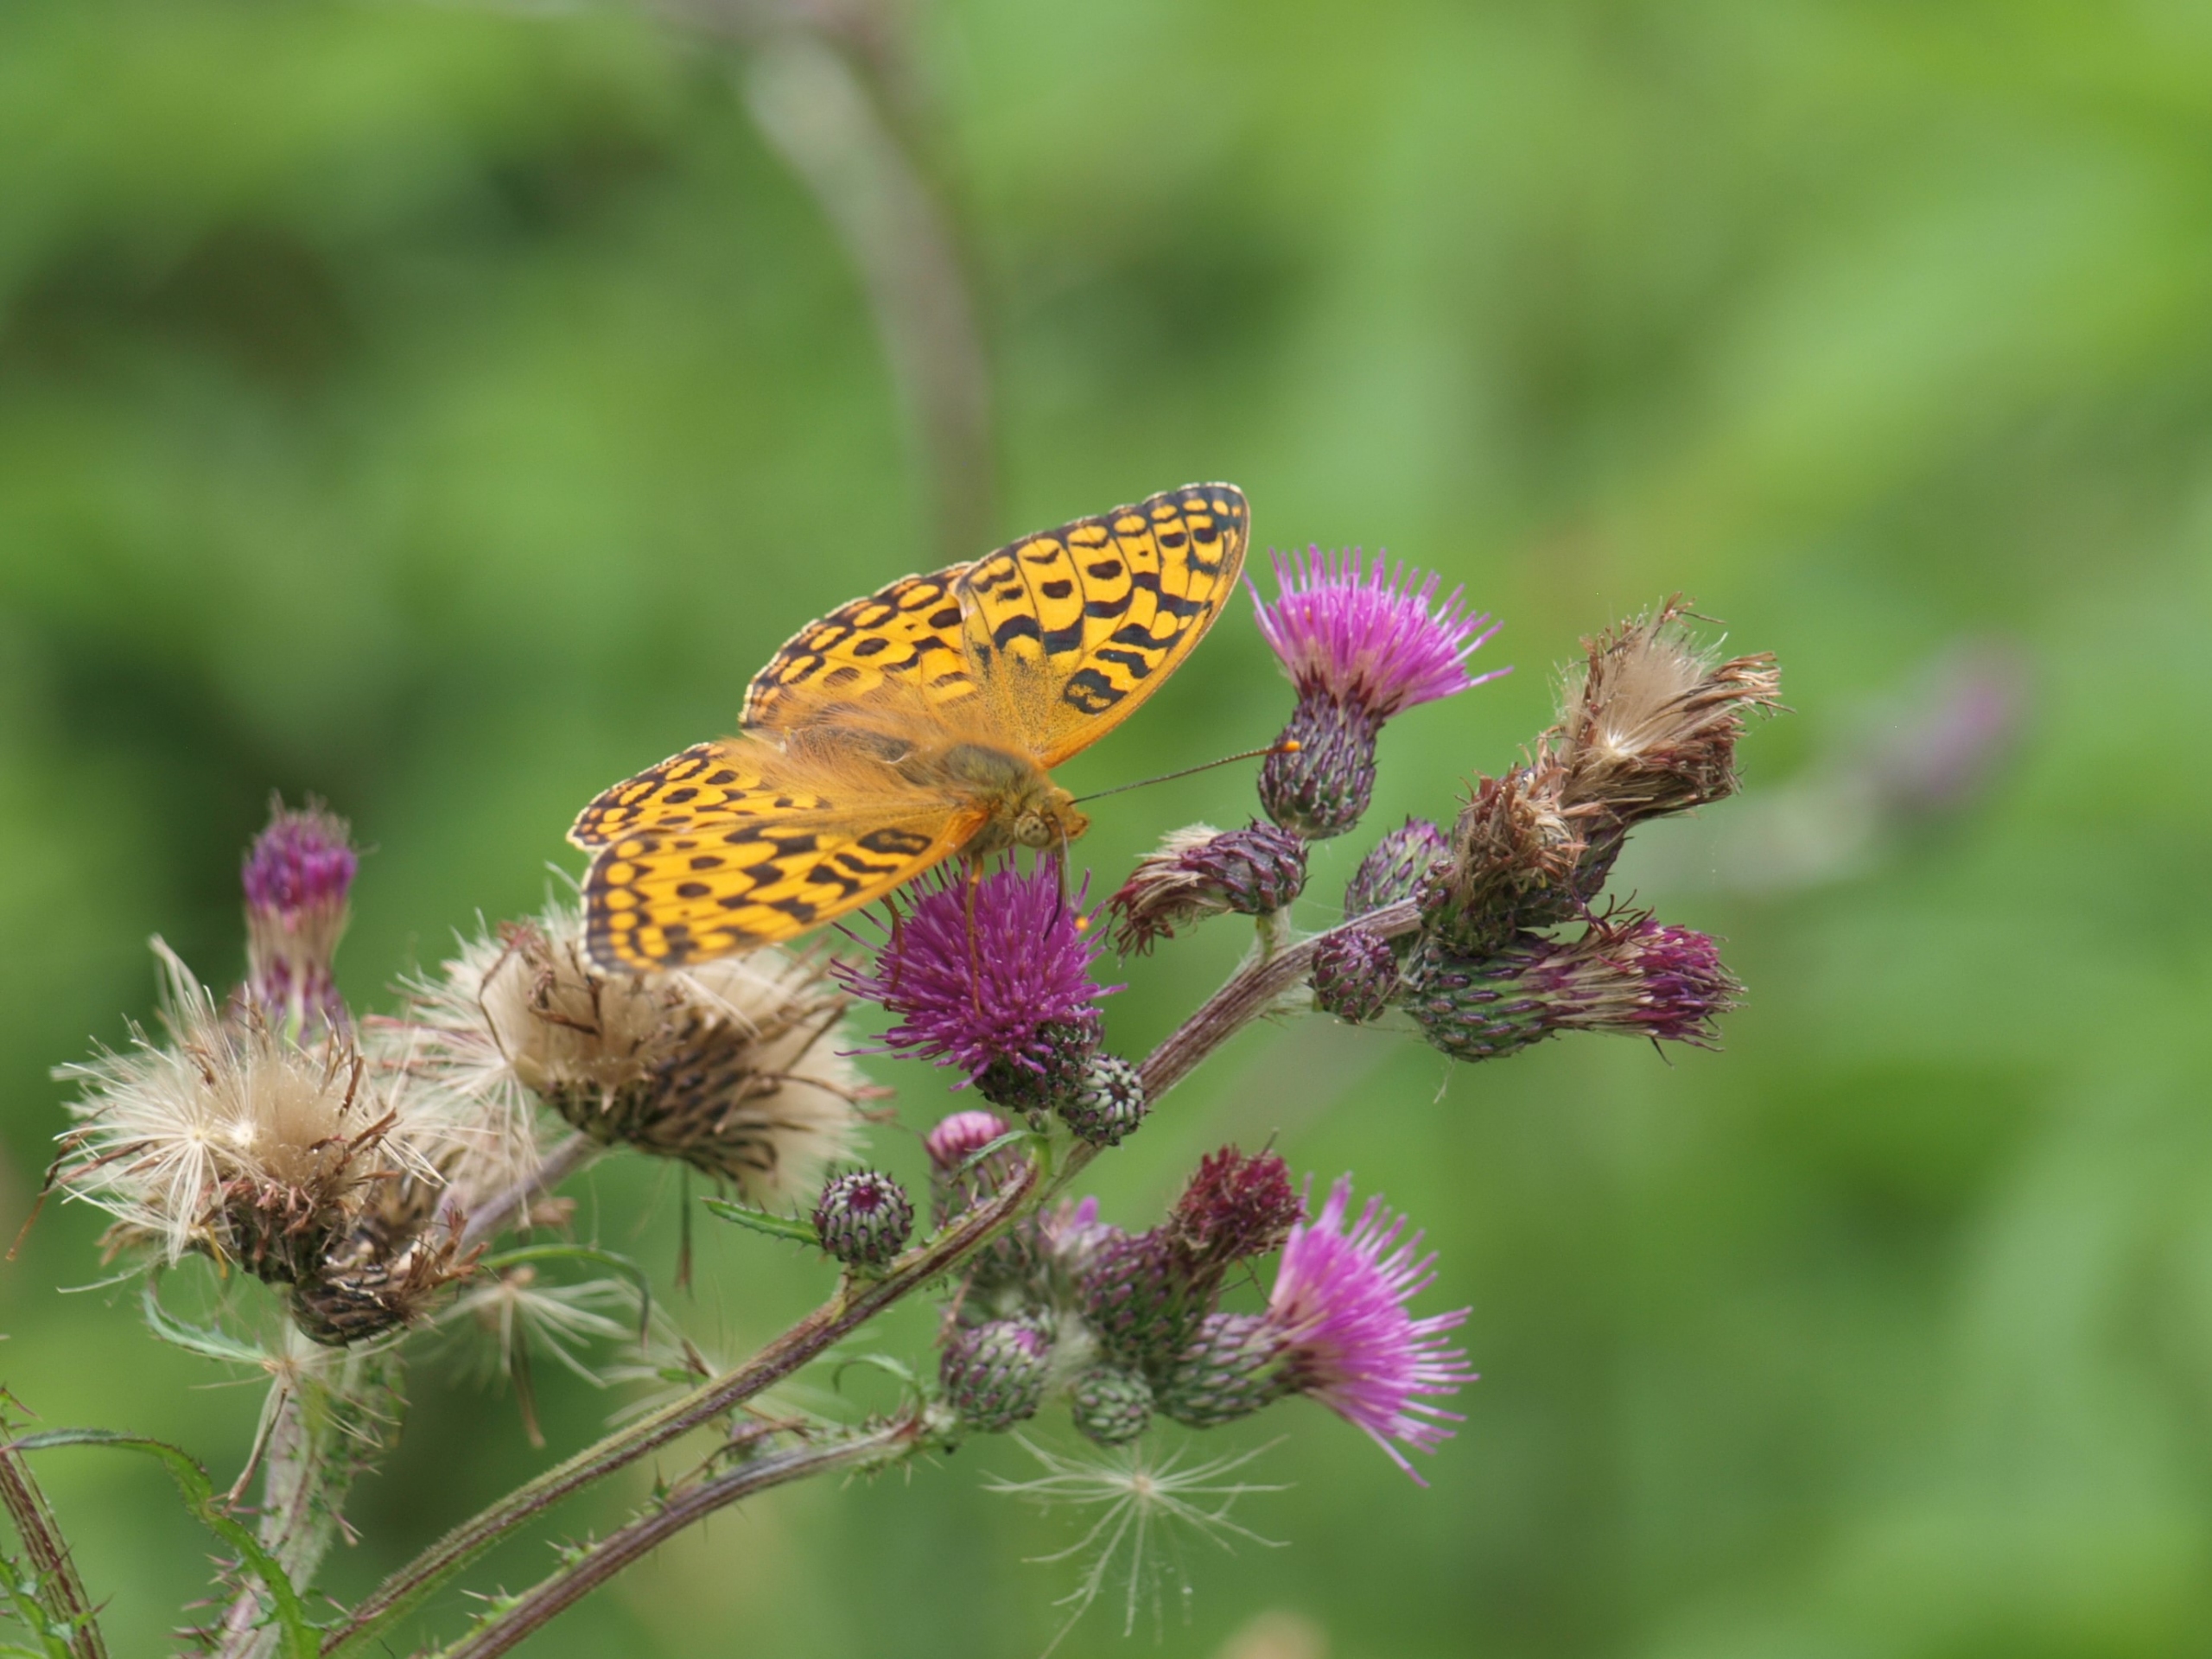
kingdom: Animalia
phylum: Arthropoda
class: Insecta
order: Lepidoptera
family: Nymphalidae
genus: Fabriciana
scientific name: Fabriciana adippe
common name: Skovperlemorsommerfugl
